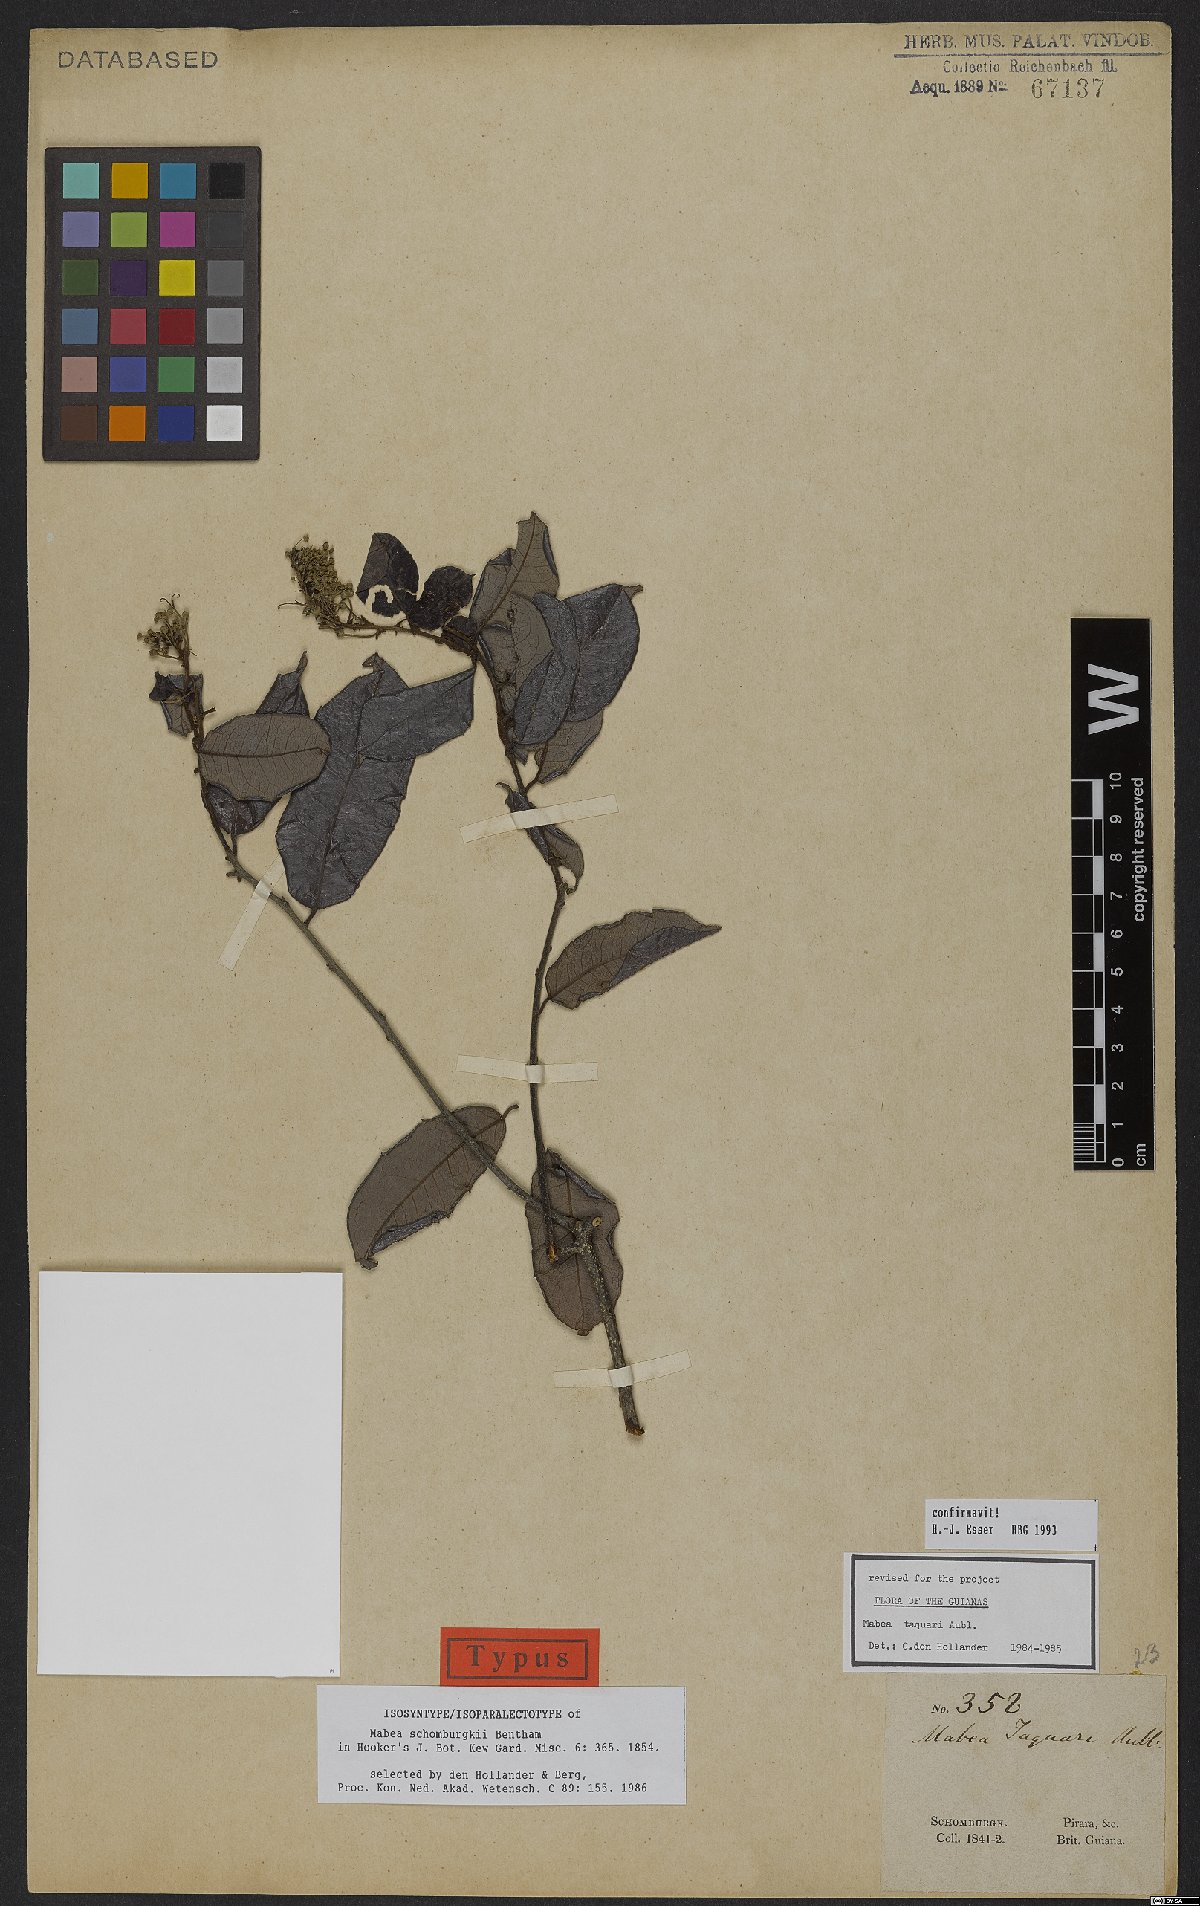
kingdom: Plantae
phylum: Tracheophyta
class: Magnoliopsida
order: Malpighiales
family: Euphorbiaceae
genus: Mabea
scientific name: Mabea taquari
